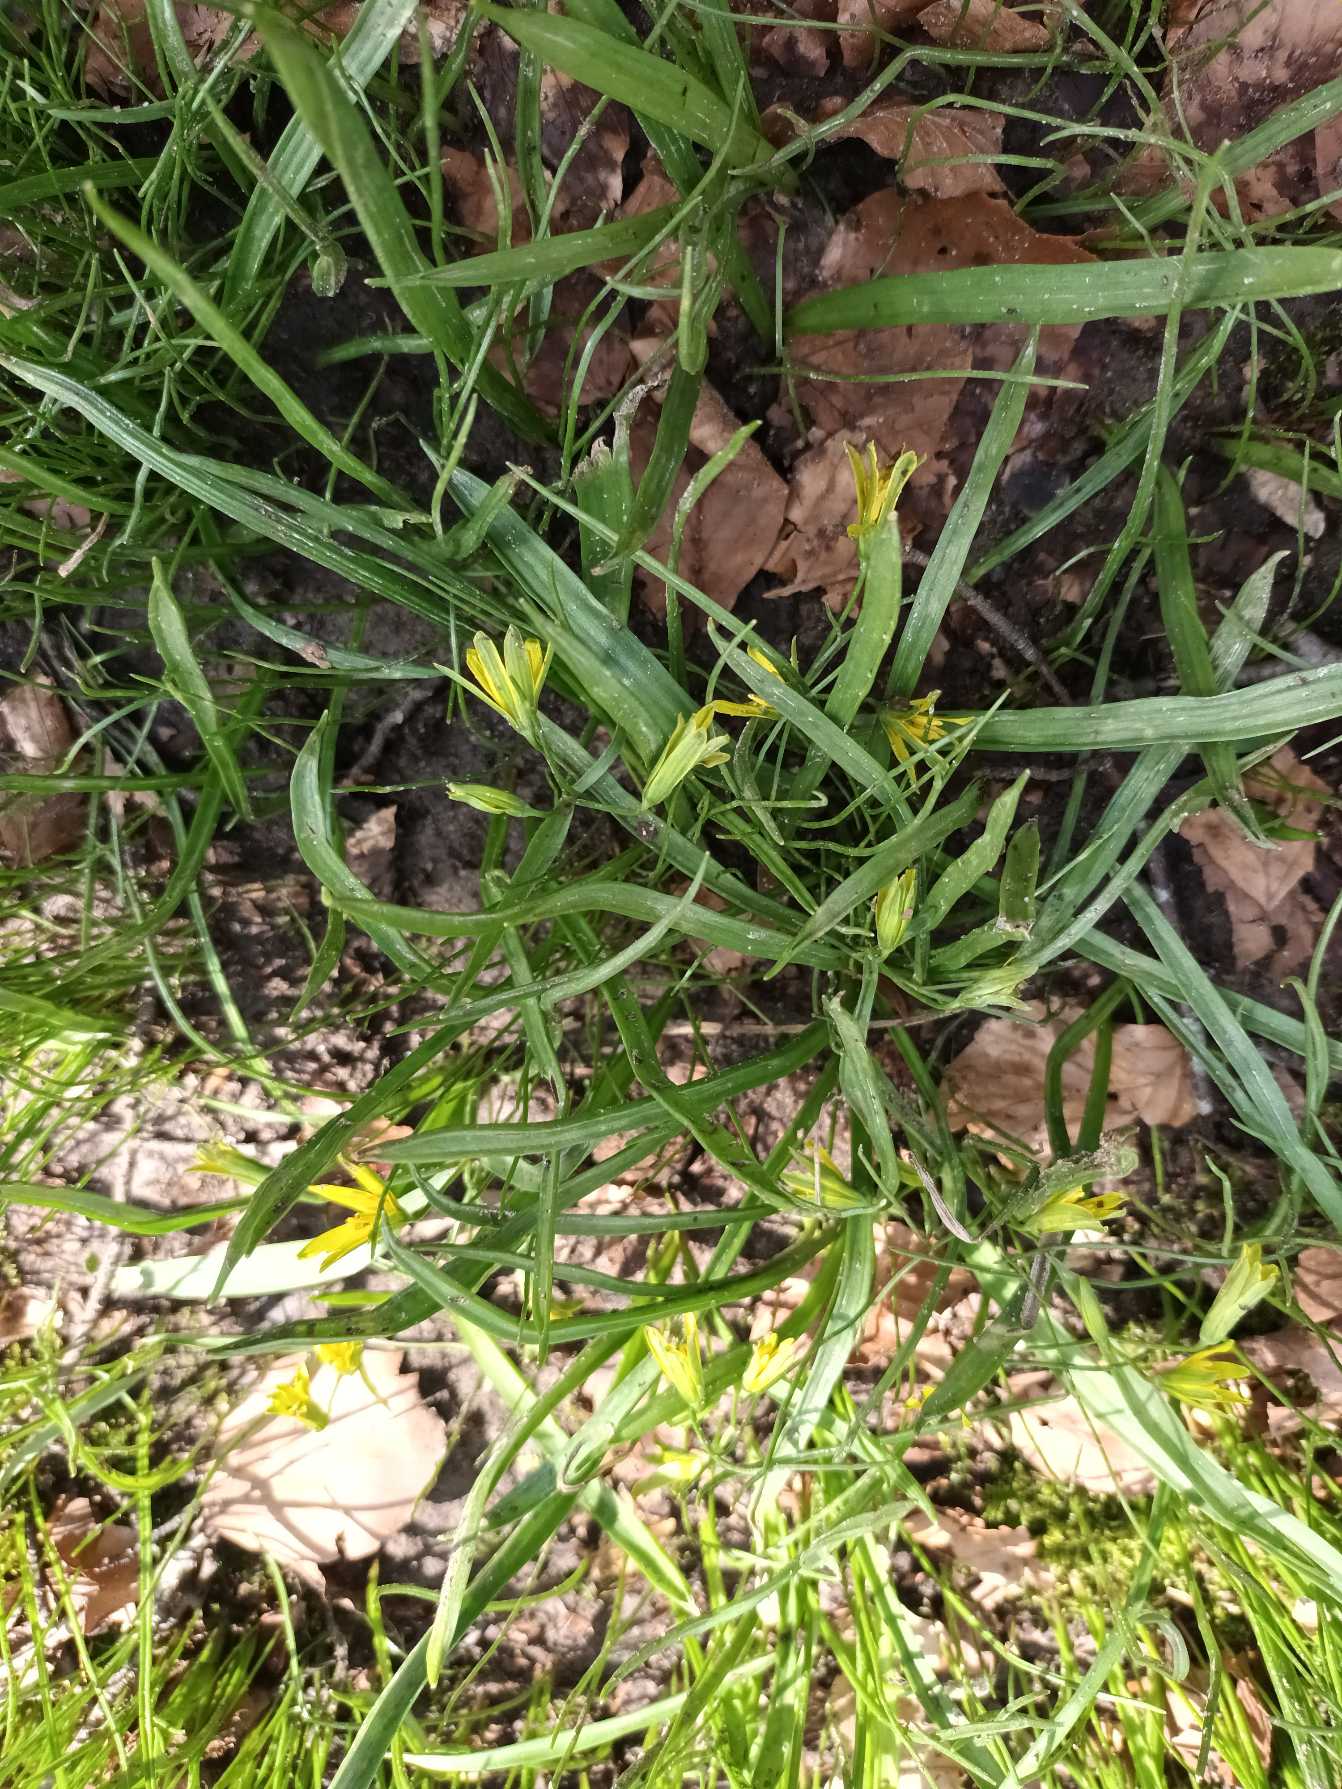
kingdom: Plantae
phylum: Tracheophyta
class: Liliopsida
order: Liliales
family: Liliaceae
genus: Gagea
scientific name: Gagea lutea
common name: Almindelig guldstjerne
